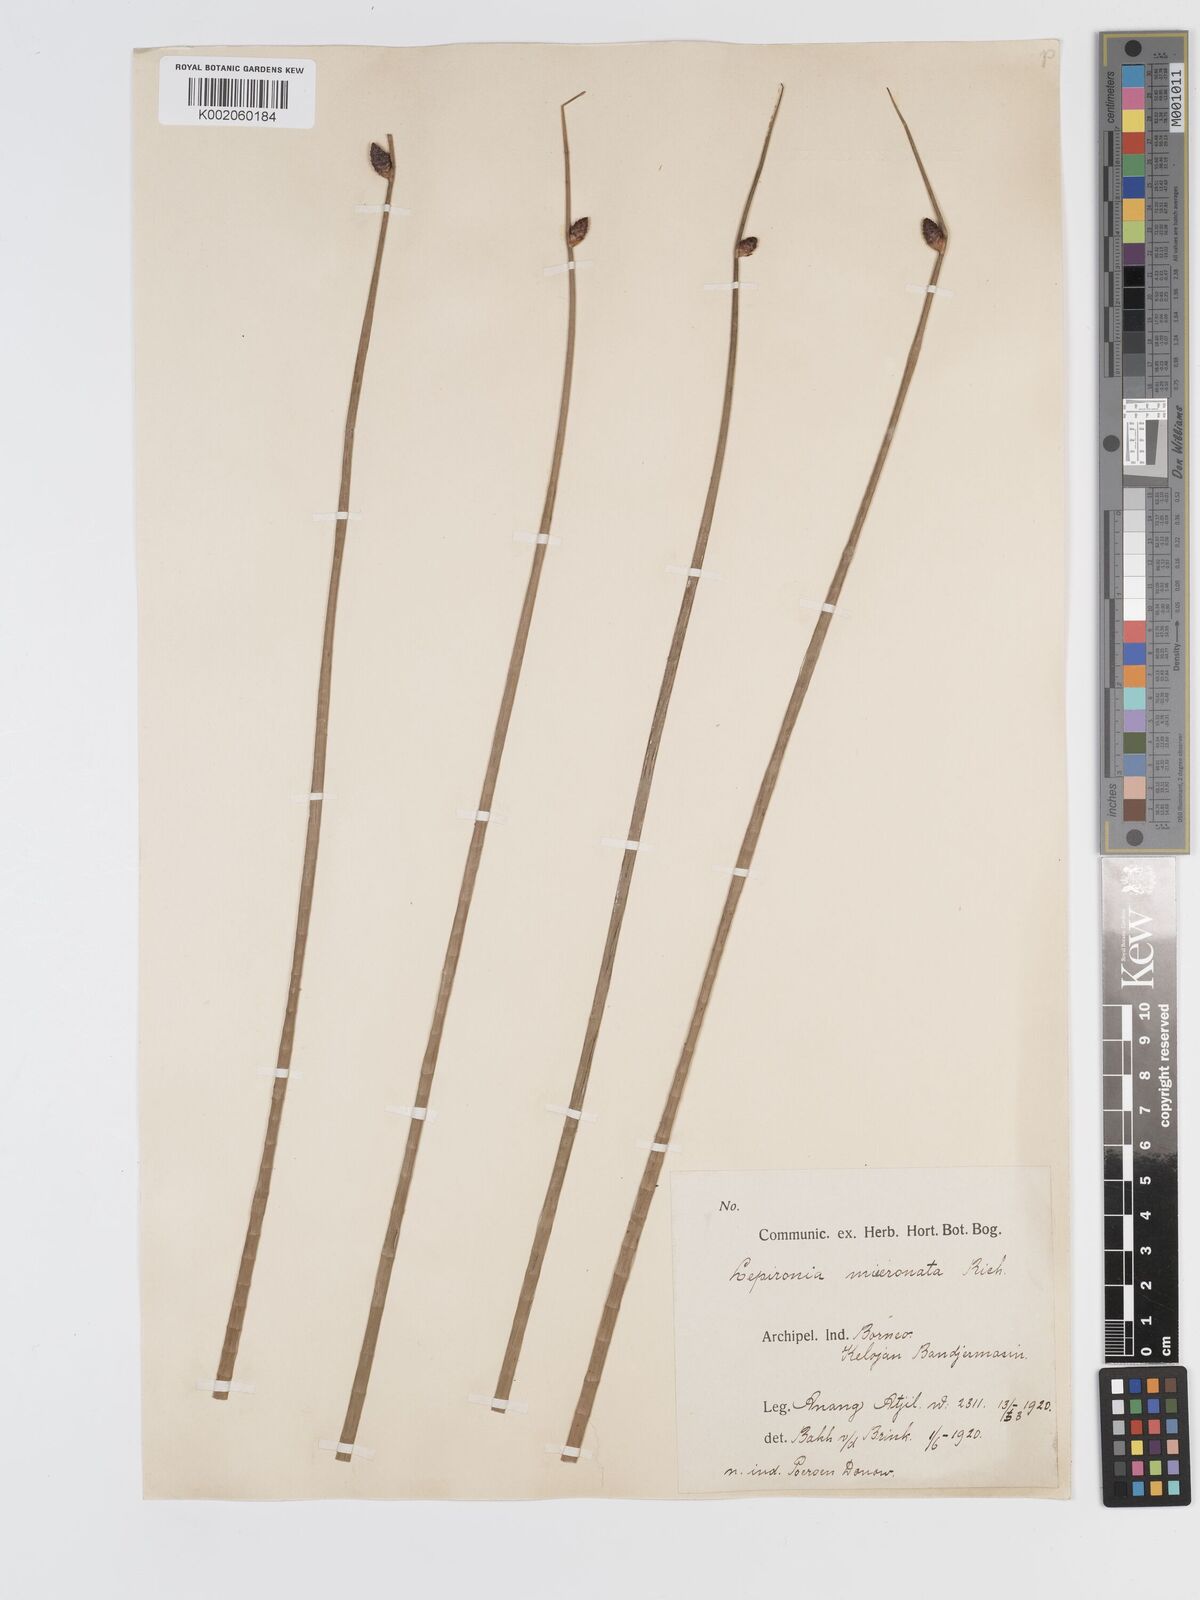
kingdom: Plantae
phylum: Tracheophyta
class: Liliopsida
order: Poales
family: Cyperaceae
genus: Lepironia
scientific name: Lepironia articulata
